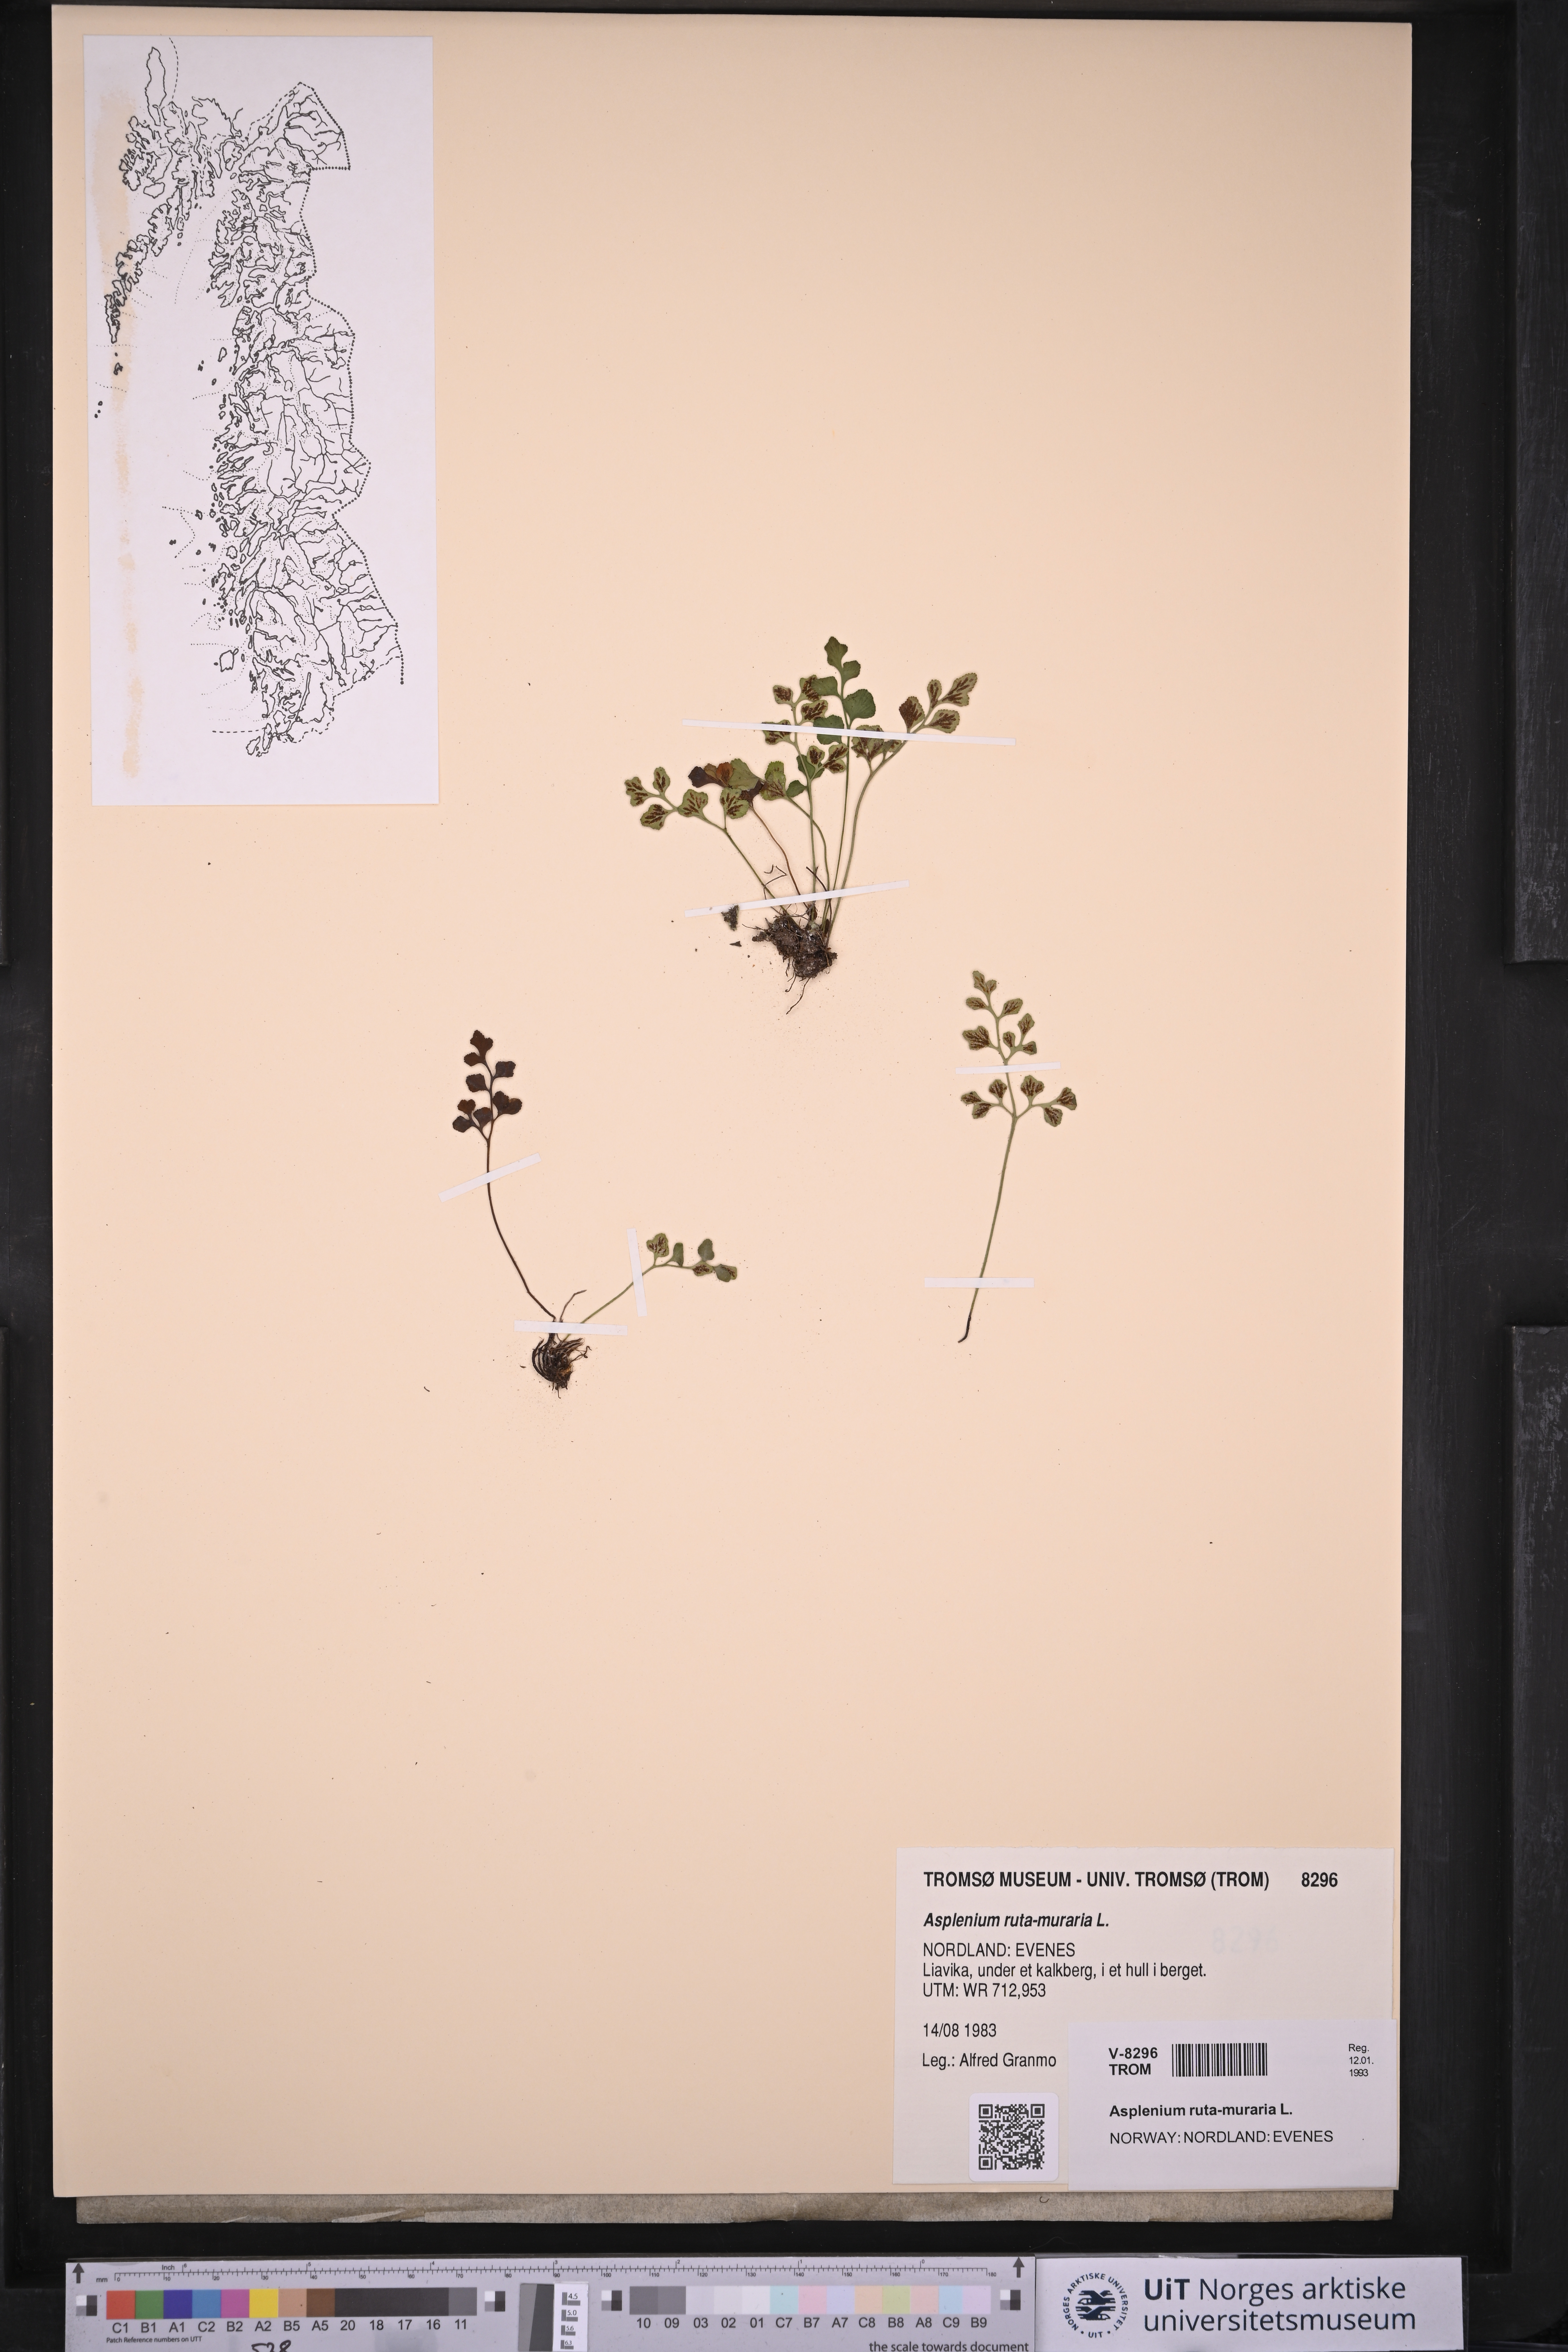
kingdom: Plantae
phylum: Tracheophyta
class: Polypodiopsida
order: Polypodiales
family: Aspleniaceae
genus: Asplenium
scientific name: Asplenium ruta-muraria
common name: Wall-rue
